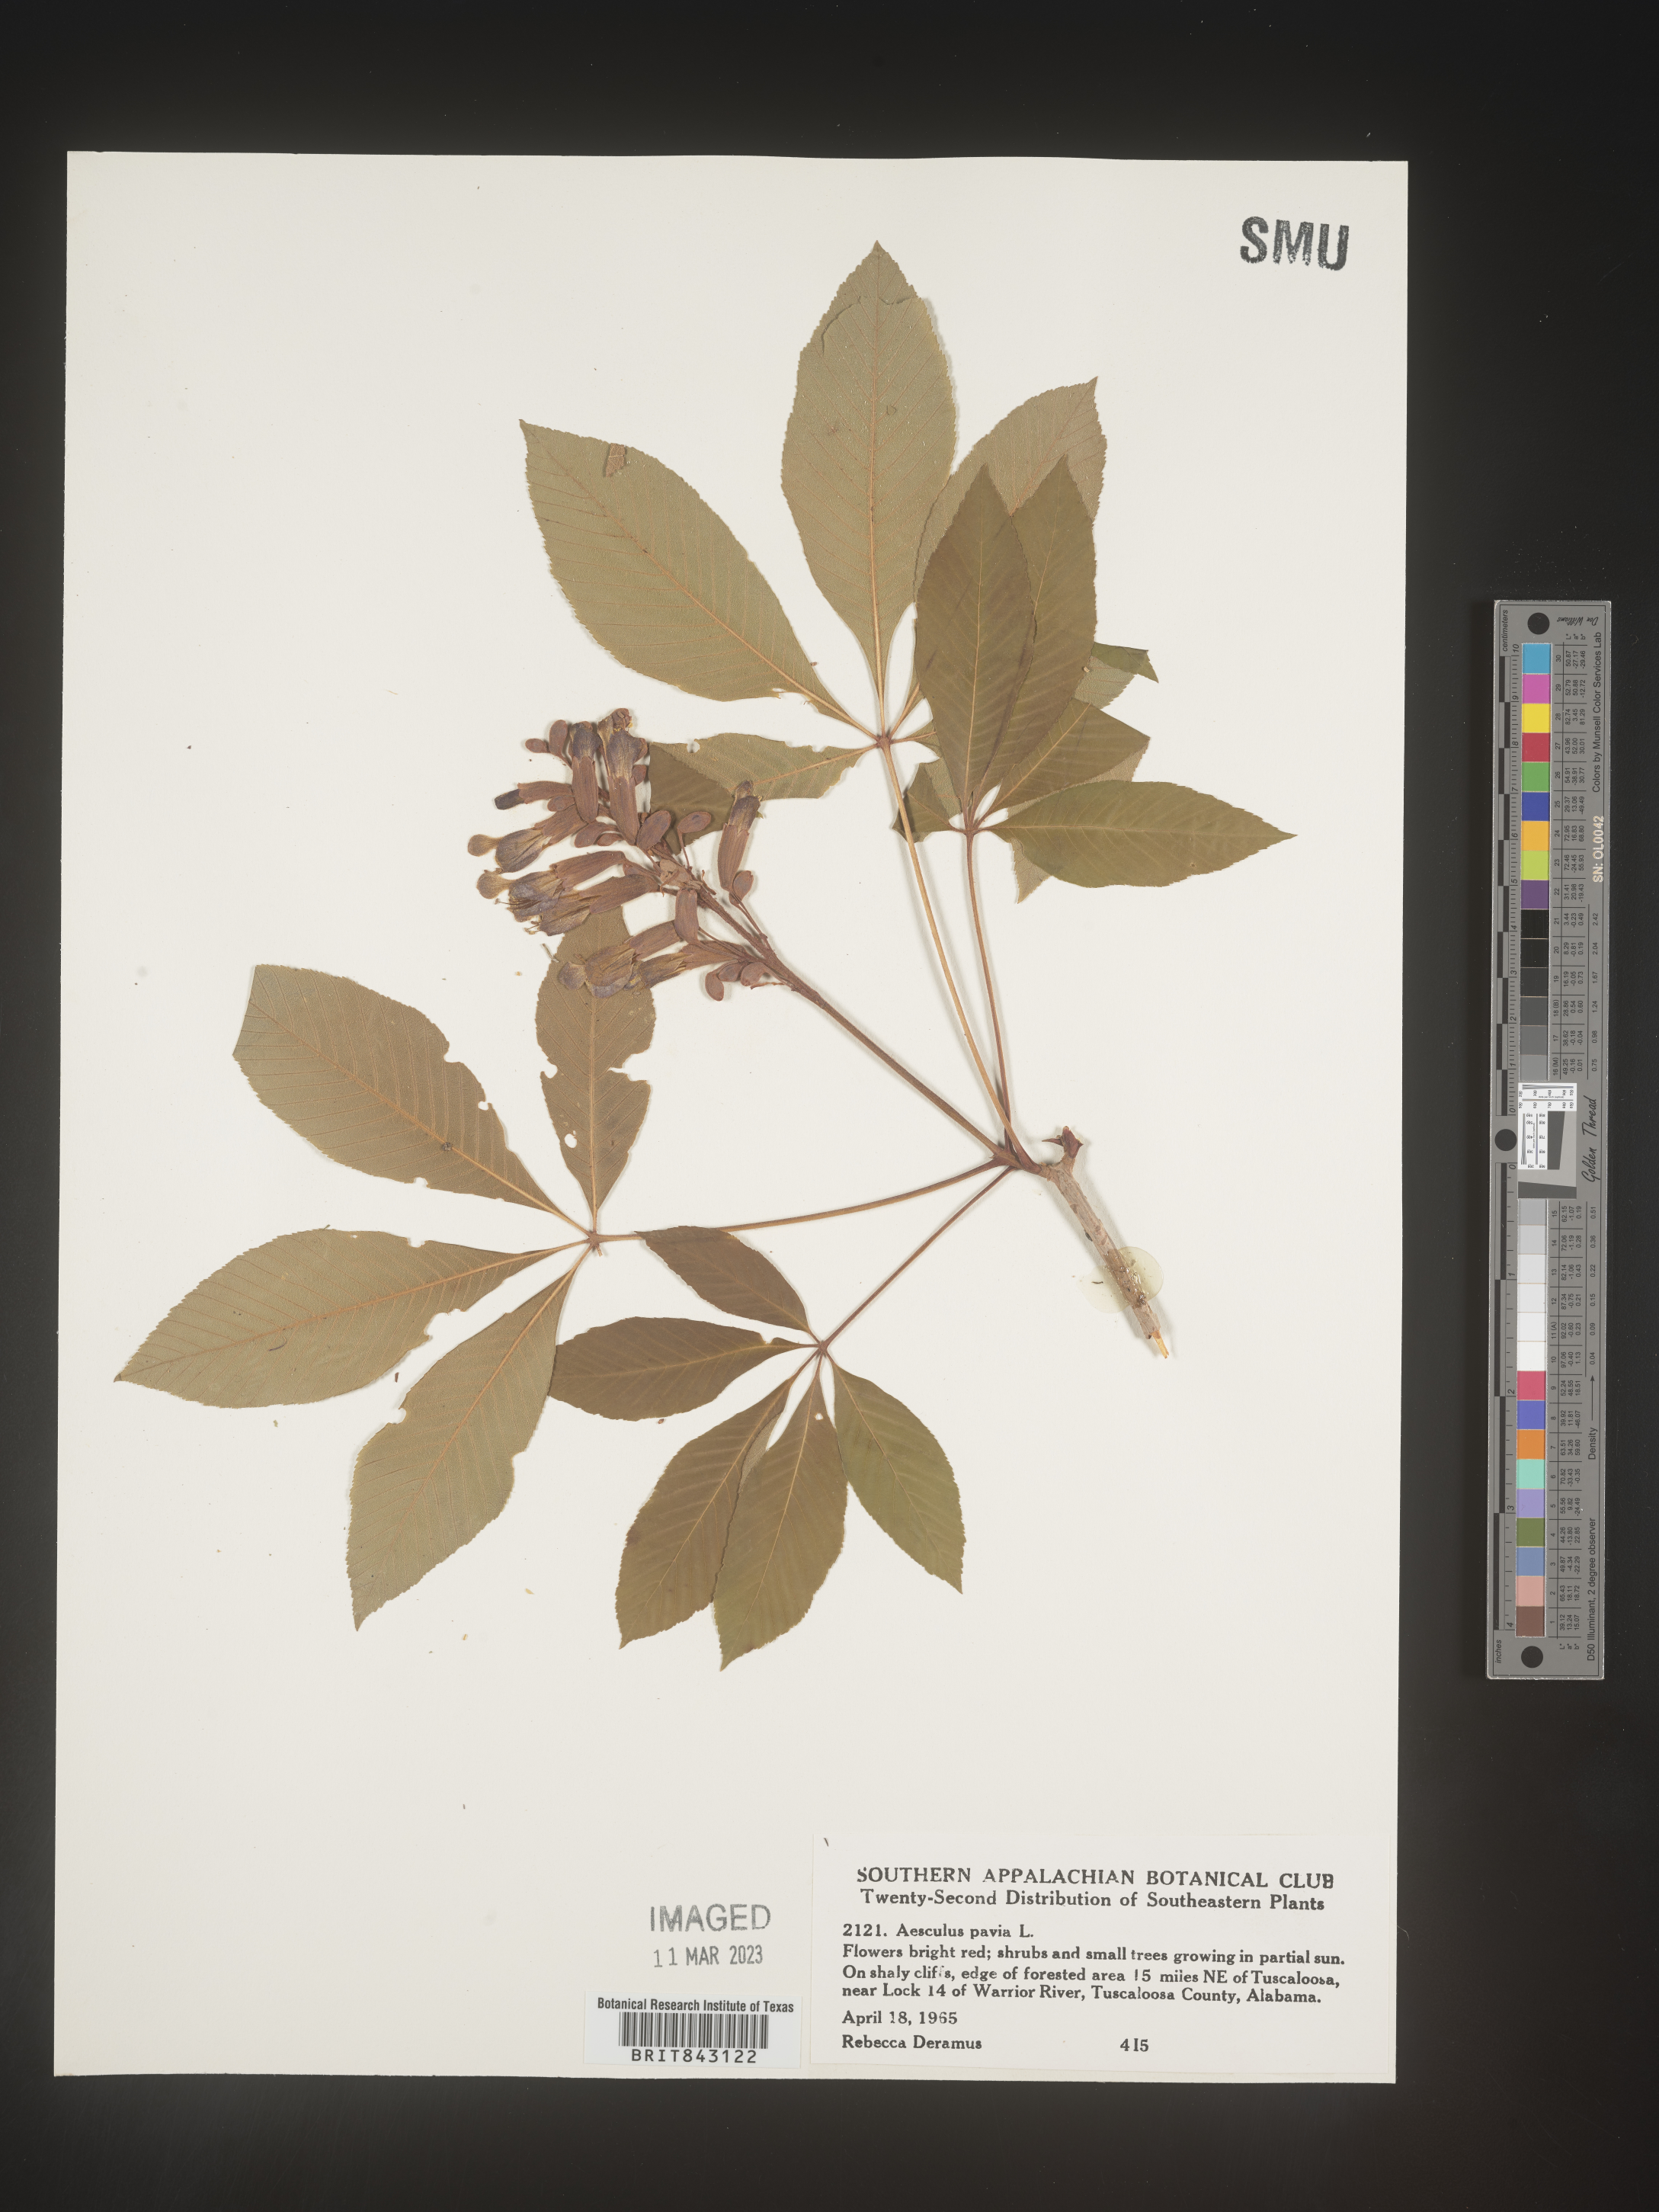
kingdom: Plantae
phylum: Tracheophyta
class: Magnoliopsida
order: Sapindales
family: Sapindaceae
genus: Aesculus
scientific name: Aesculus pavia
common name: Red buckeye
